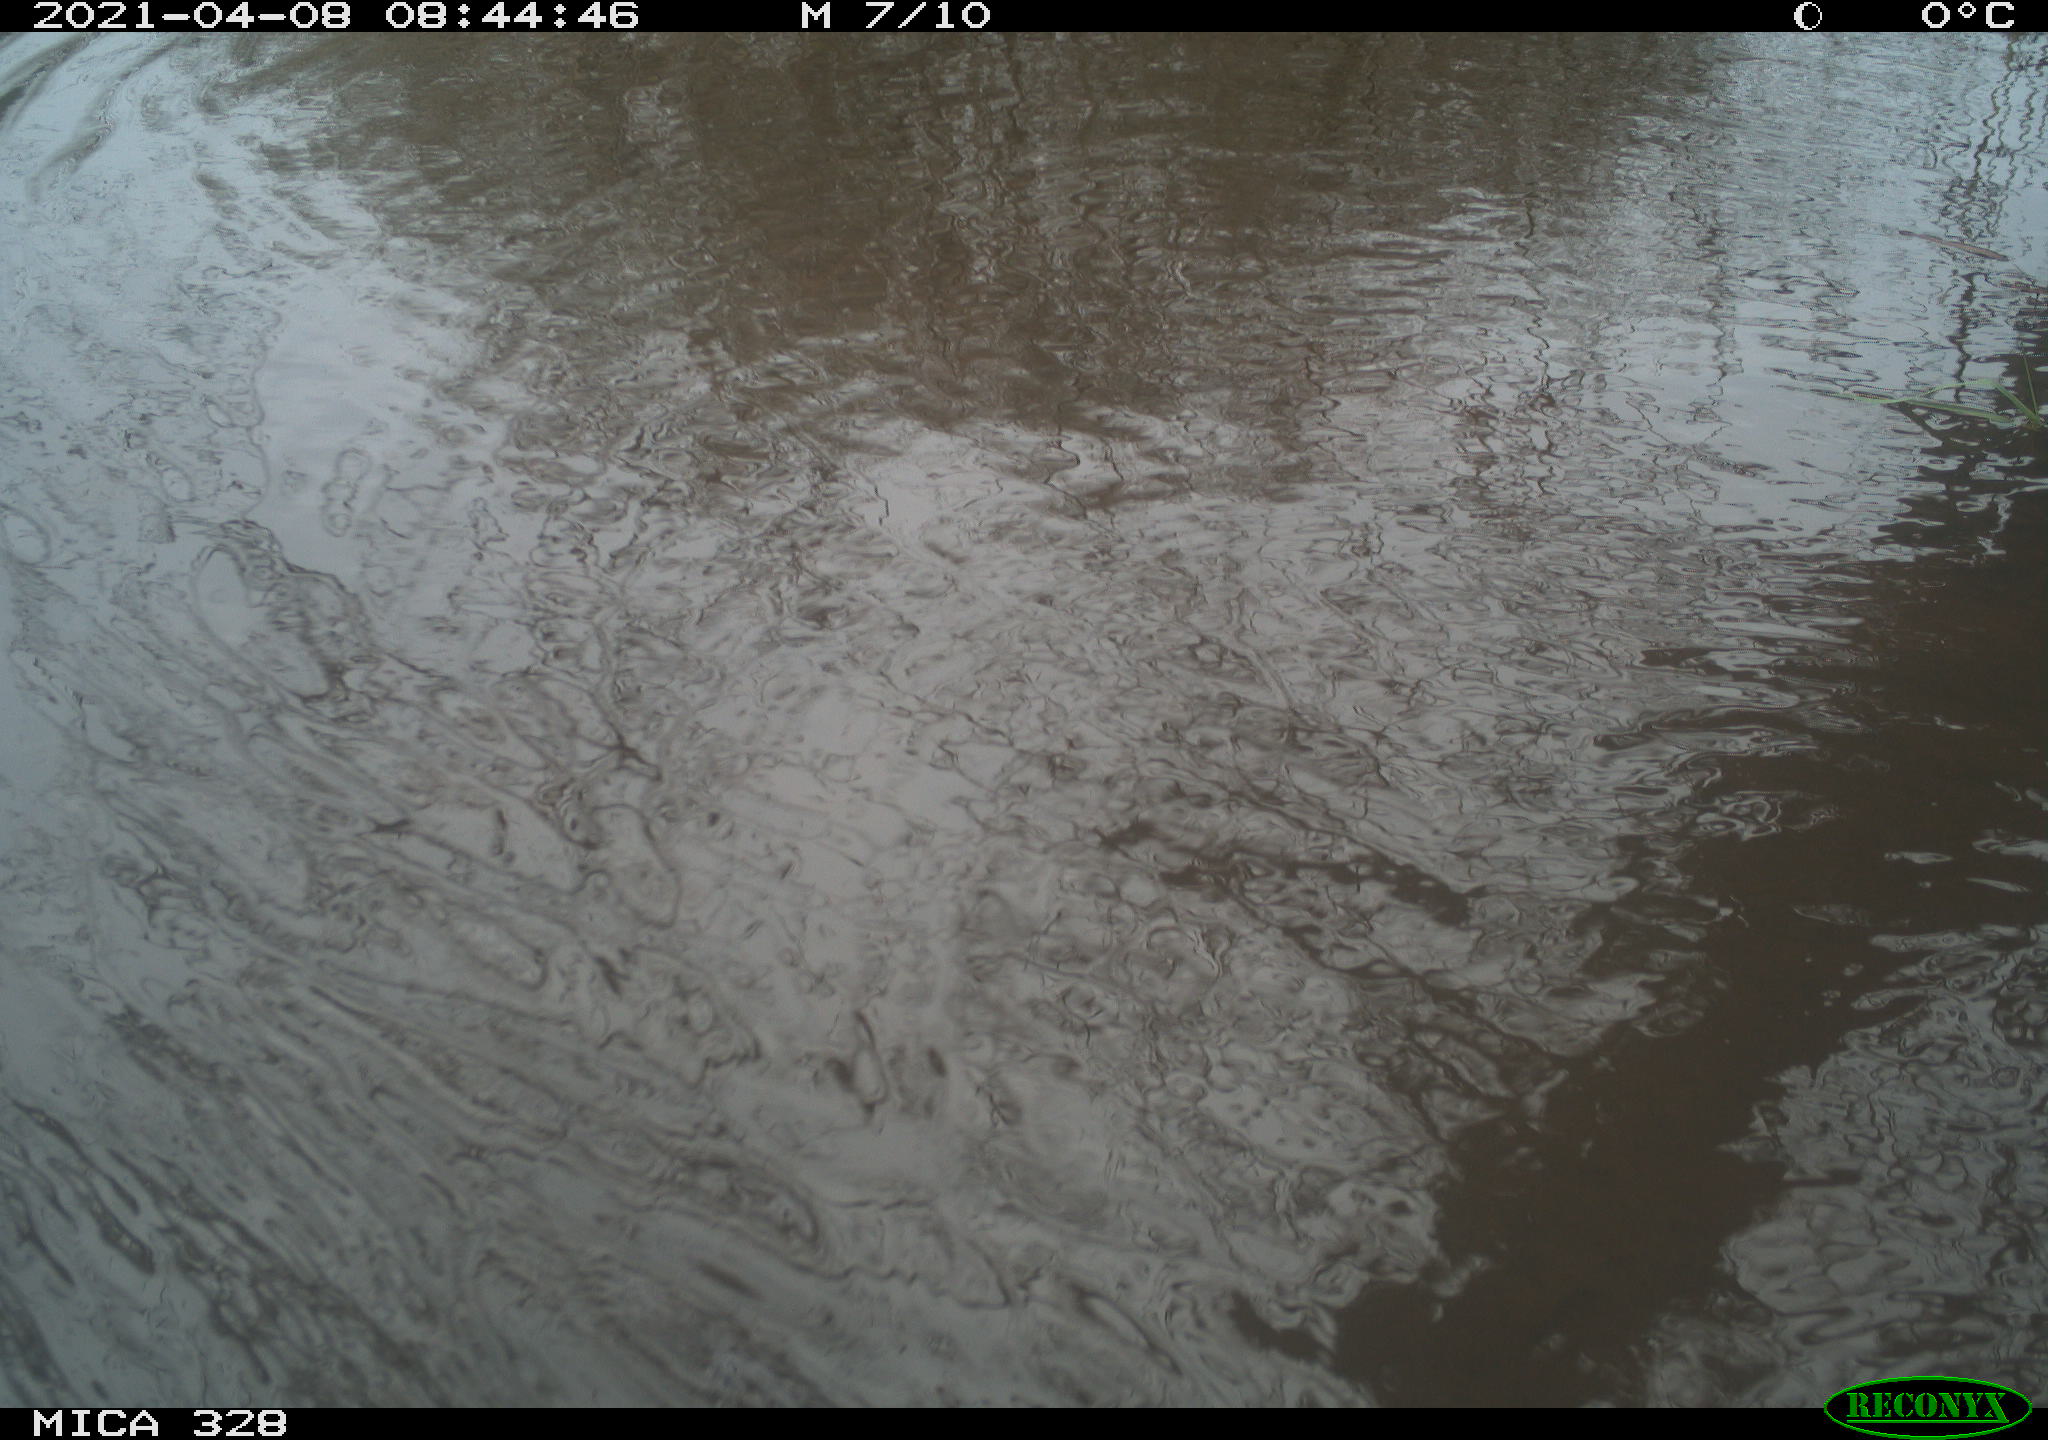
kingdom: Animalia
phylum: Chordata
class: Mammalia
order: Rodentia
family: Cricetidae
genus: Ondatra
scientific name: Ondatra zibethicus
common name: Muskrat
